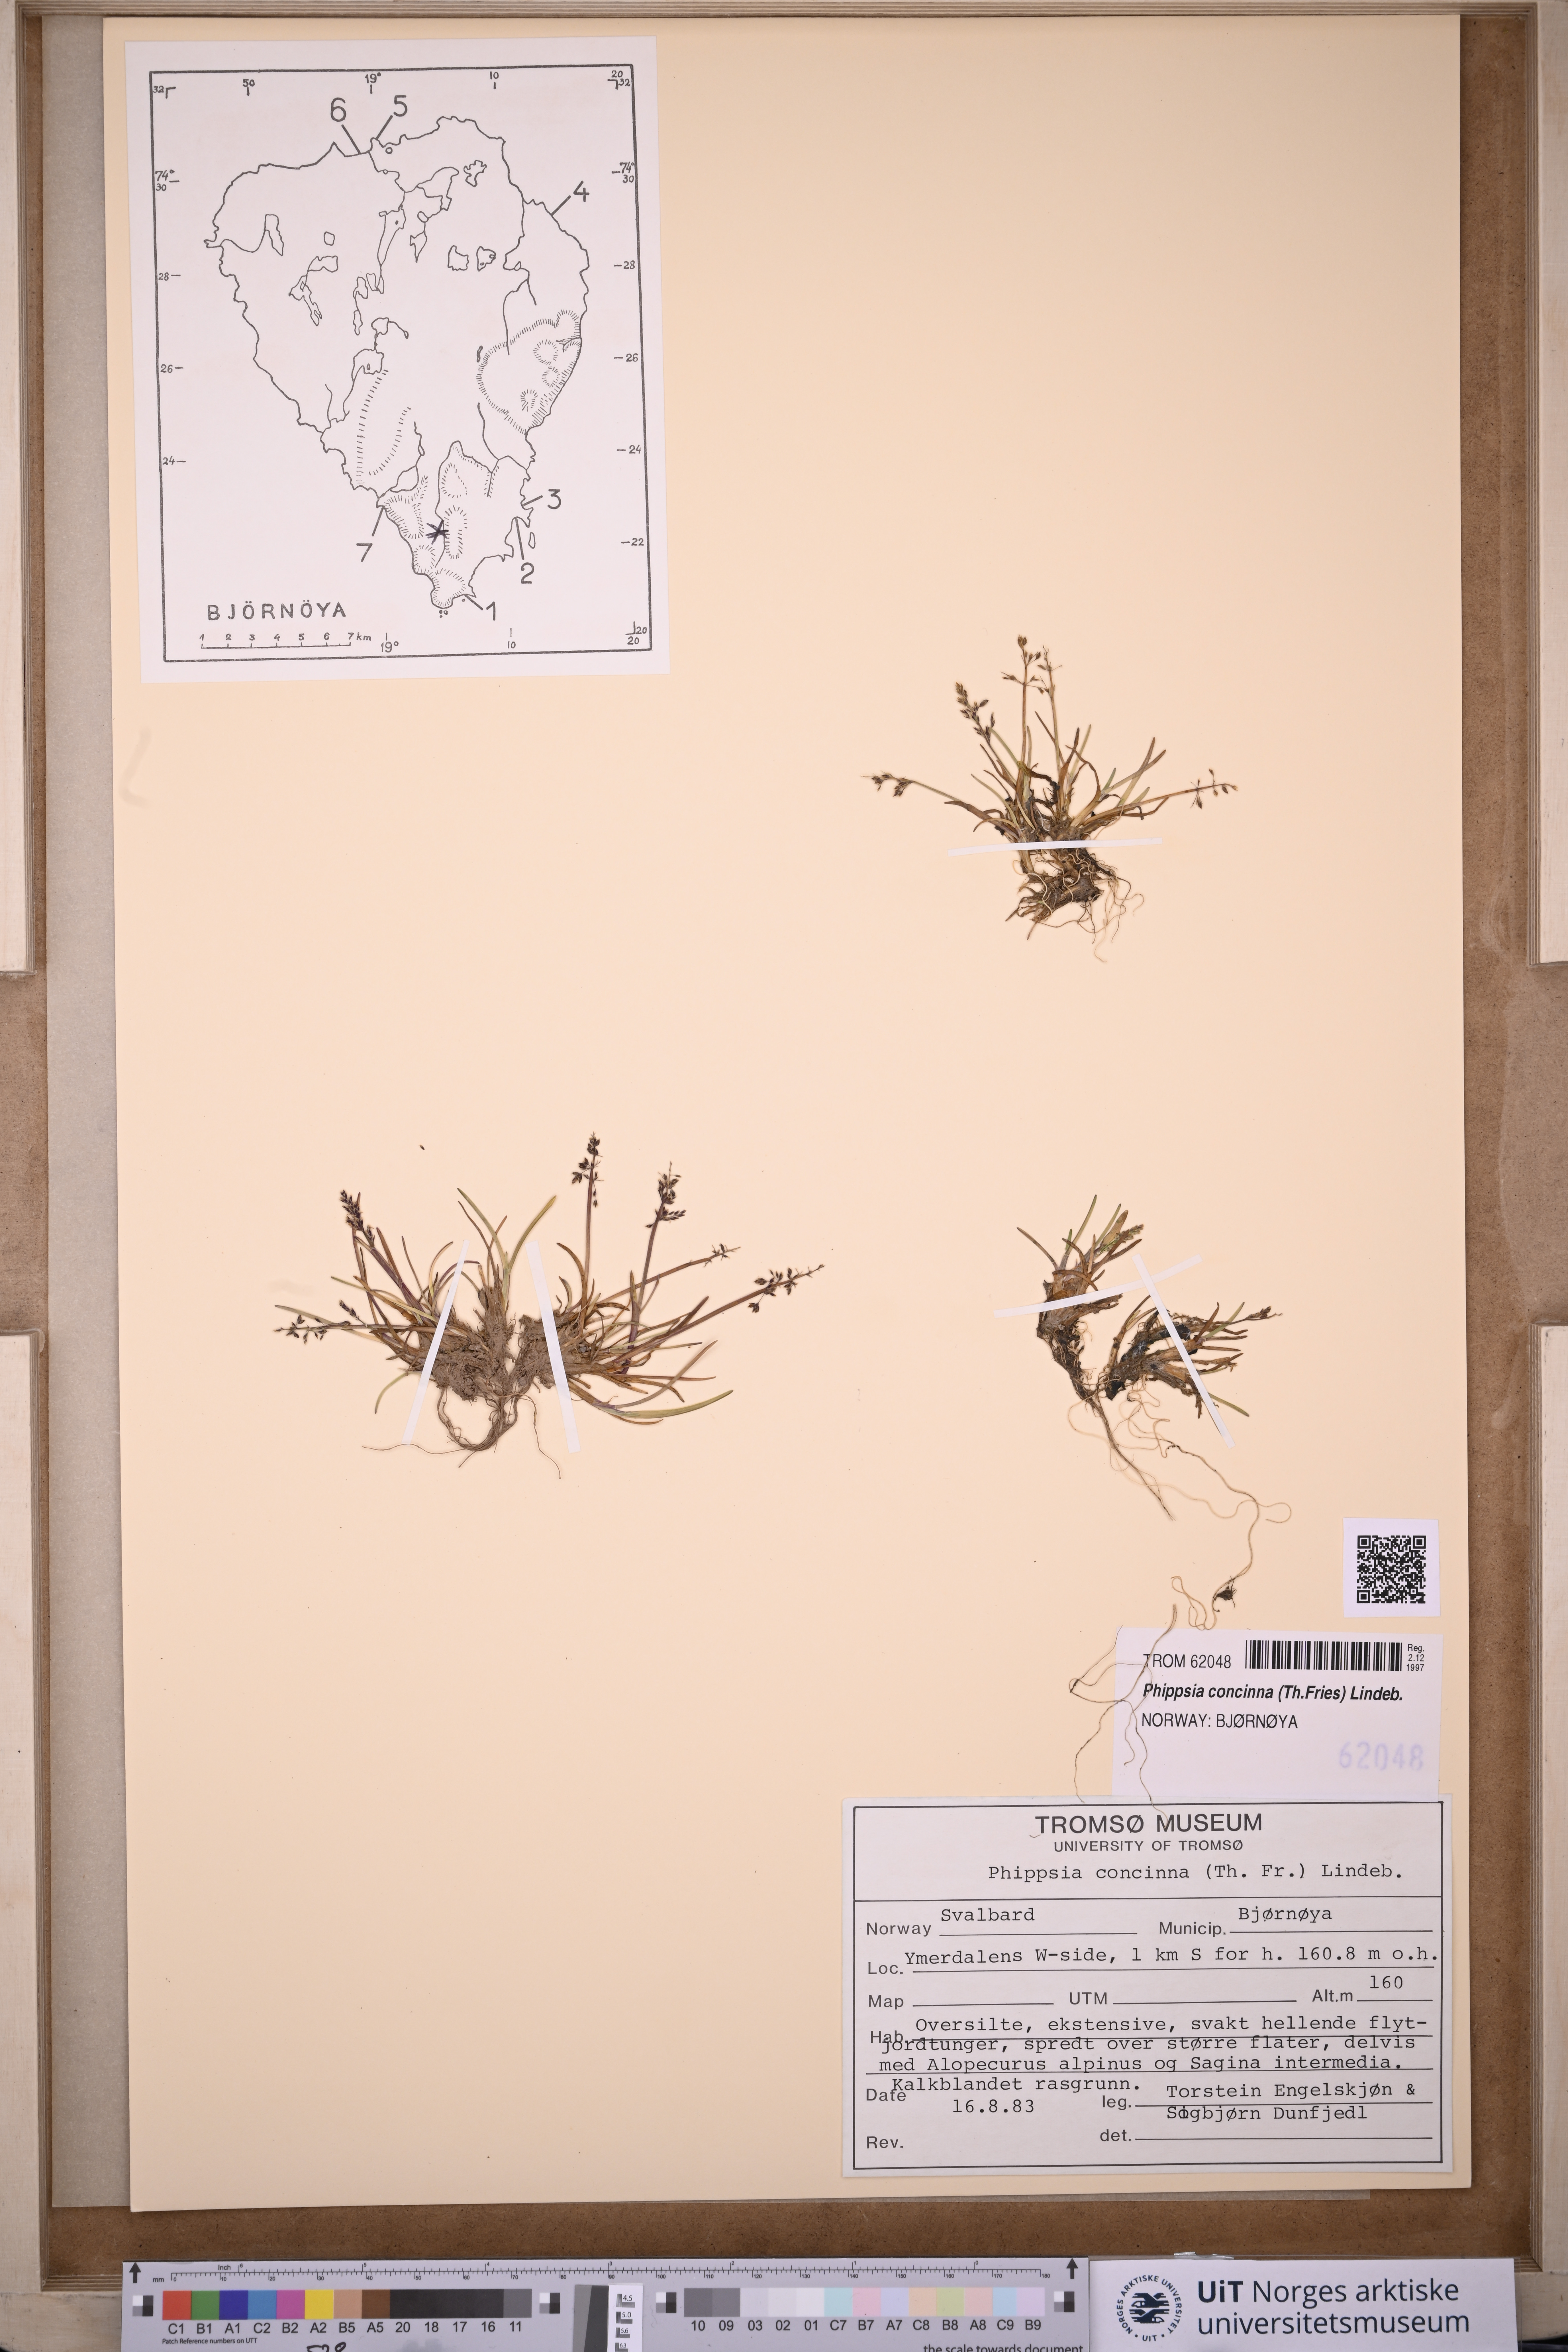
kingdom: Plantae
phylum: Tracheophyta
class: Liliopsida
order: Poales
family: Poaceae
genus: Phippsia
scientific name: Phippsia concinna
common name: Snowgrass
